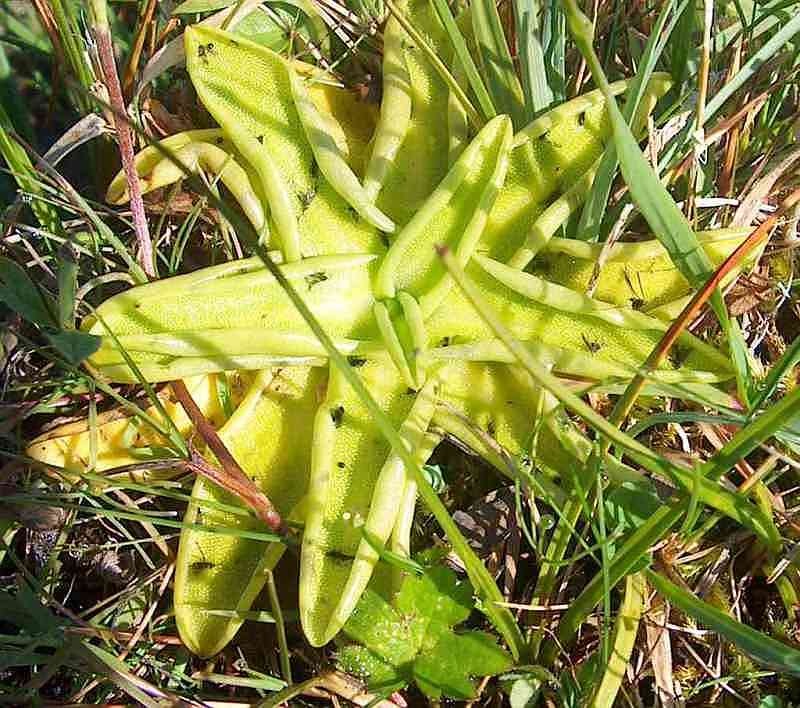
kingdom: Plantae
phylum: Tracheophyta
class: Magnoliopsida
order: Lamiales
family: Lentibulariaceae
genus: Pinguicula
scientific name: Pinguicula vulgaris
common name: Vibefedt
